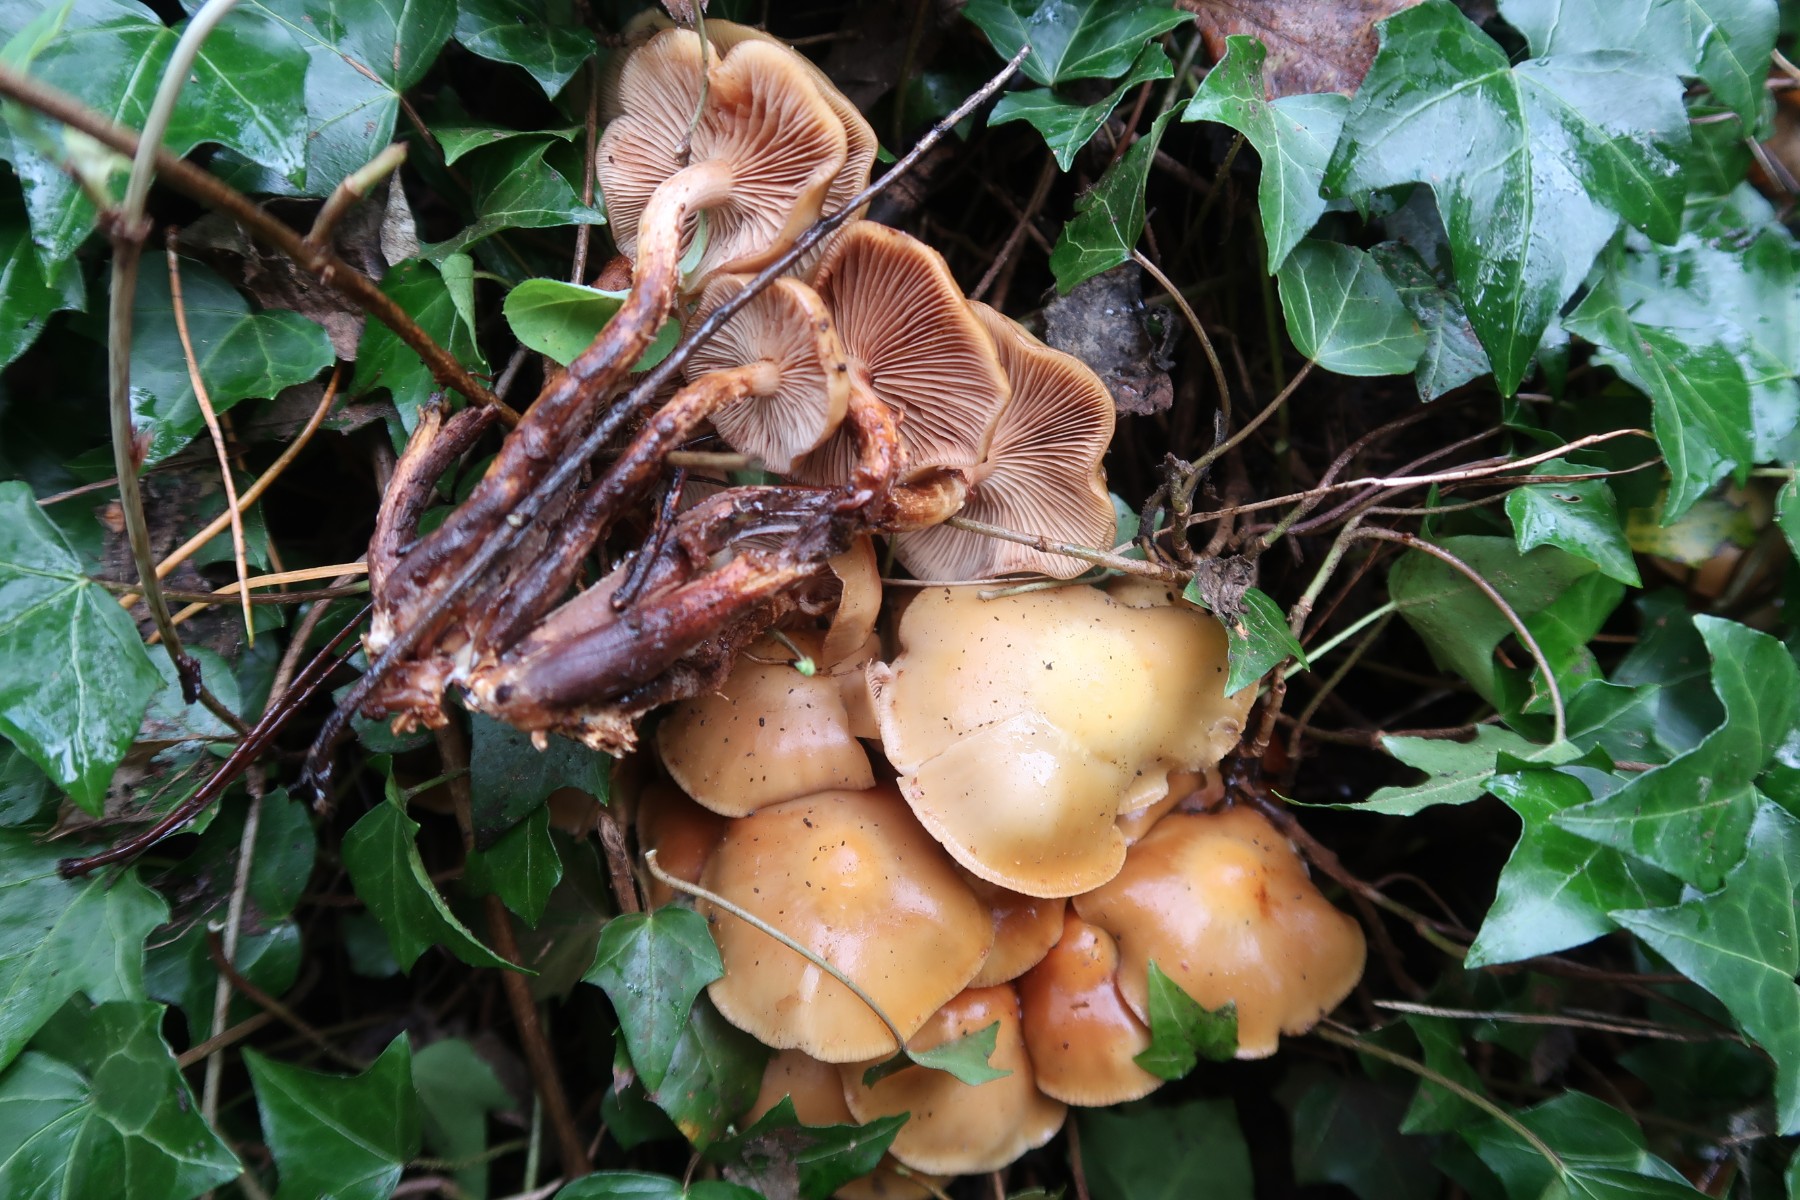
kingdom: Fungi
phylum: Basidiomycota
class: Agaricomycetes
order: Agaricales
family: Strophariaceae
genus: Kuehneromyces
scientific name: Kuehneromyces mutabilis
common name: foranderlig skælhat
